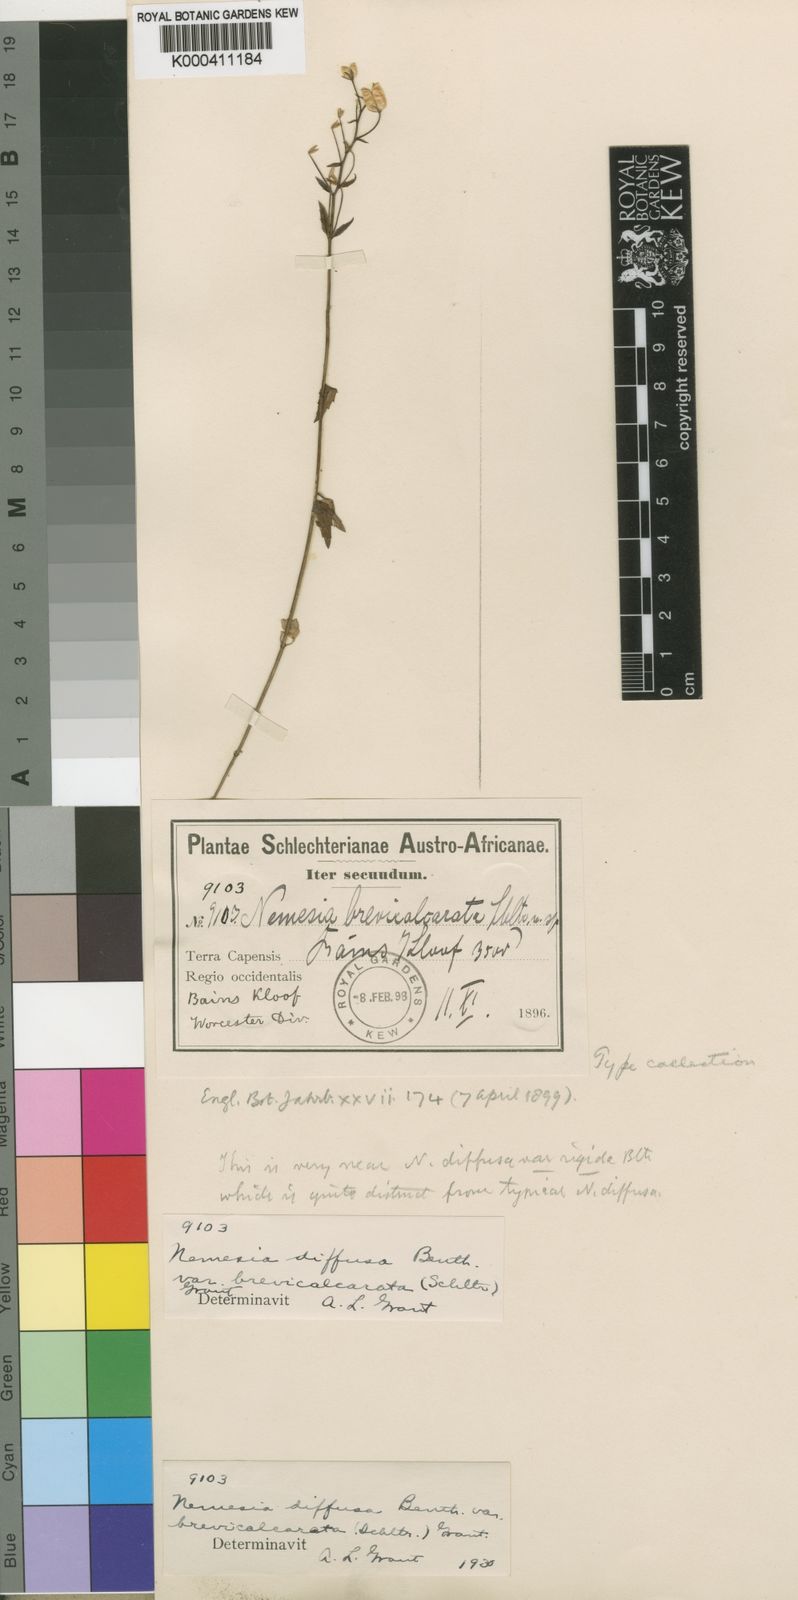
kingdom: Plantae
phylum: Tracheophyta
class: Magnoliopsida
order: Lamiales
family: Scrophulariaceae
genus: Nemesia
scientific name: Nemesia brevicalcarata
